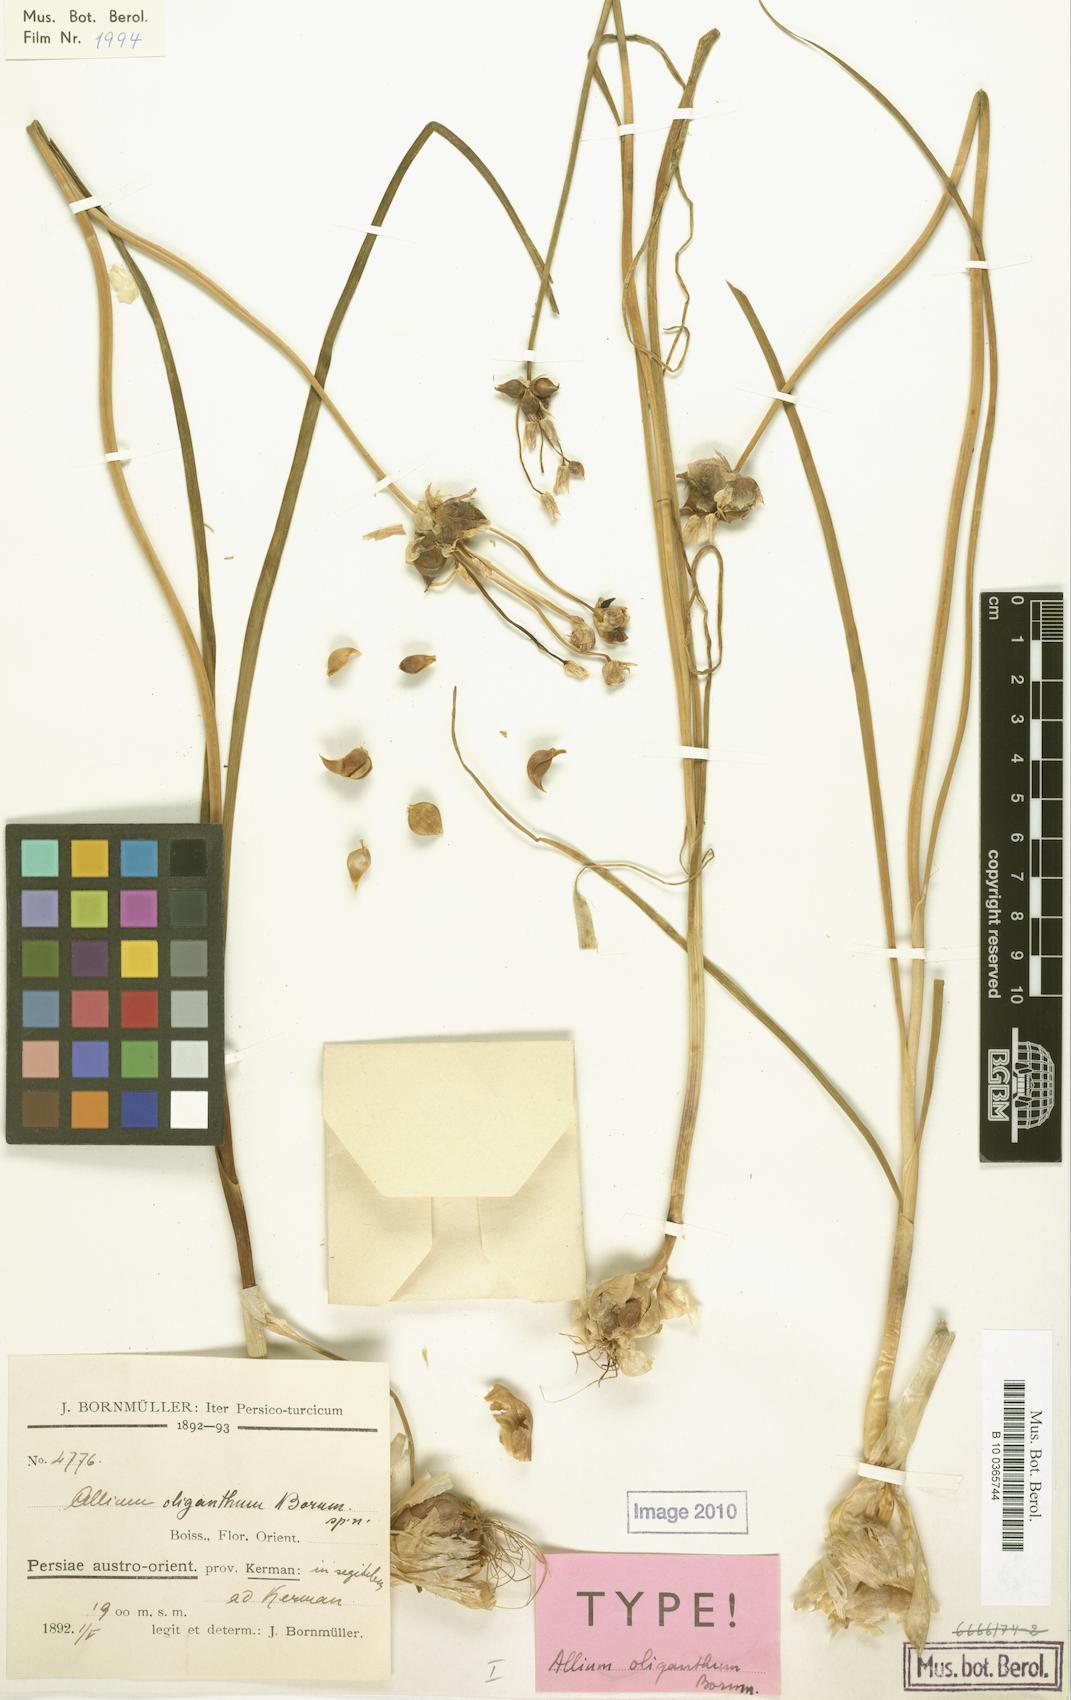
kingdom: Plantae
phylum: Tracheophyta
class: Liliopsida
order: Asparagales
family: Amaryllidaceae
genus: Allium
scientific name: Allium oliganthum
